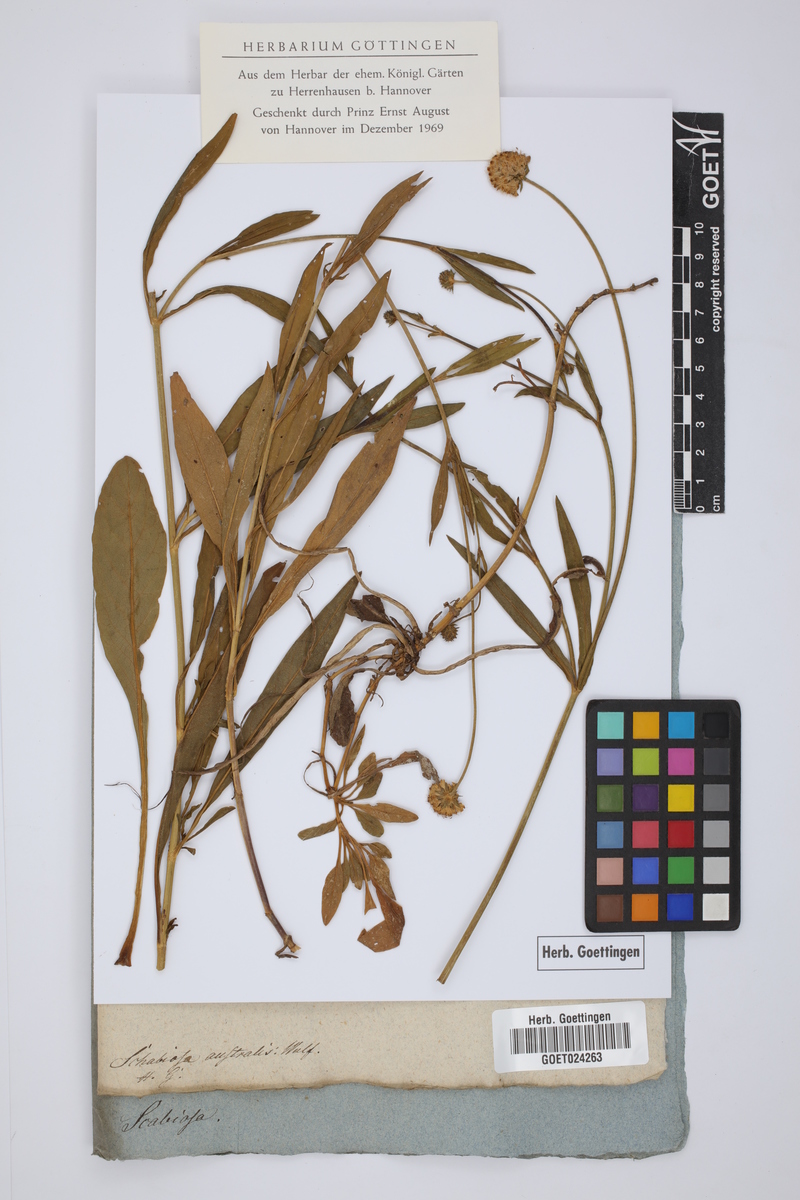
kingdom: Plantae
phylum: Tracheophyta
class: Magnoliopsida
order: Dipsacales
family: Caprifoliaceae
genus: Succisella
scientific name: Succisella inflexa
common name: Southern succisella
